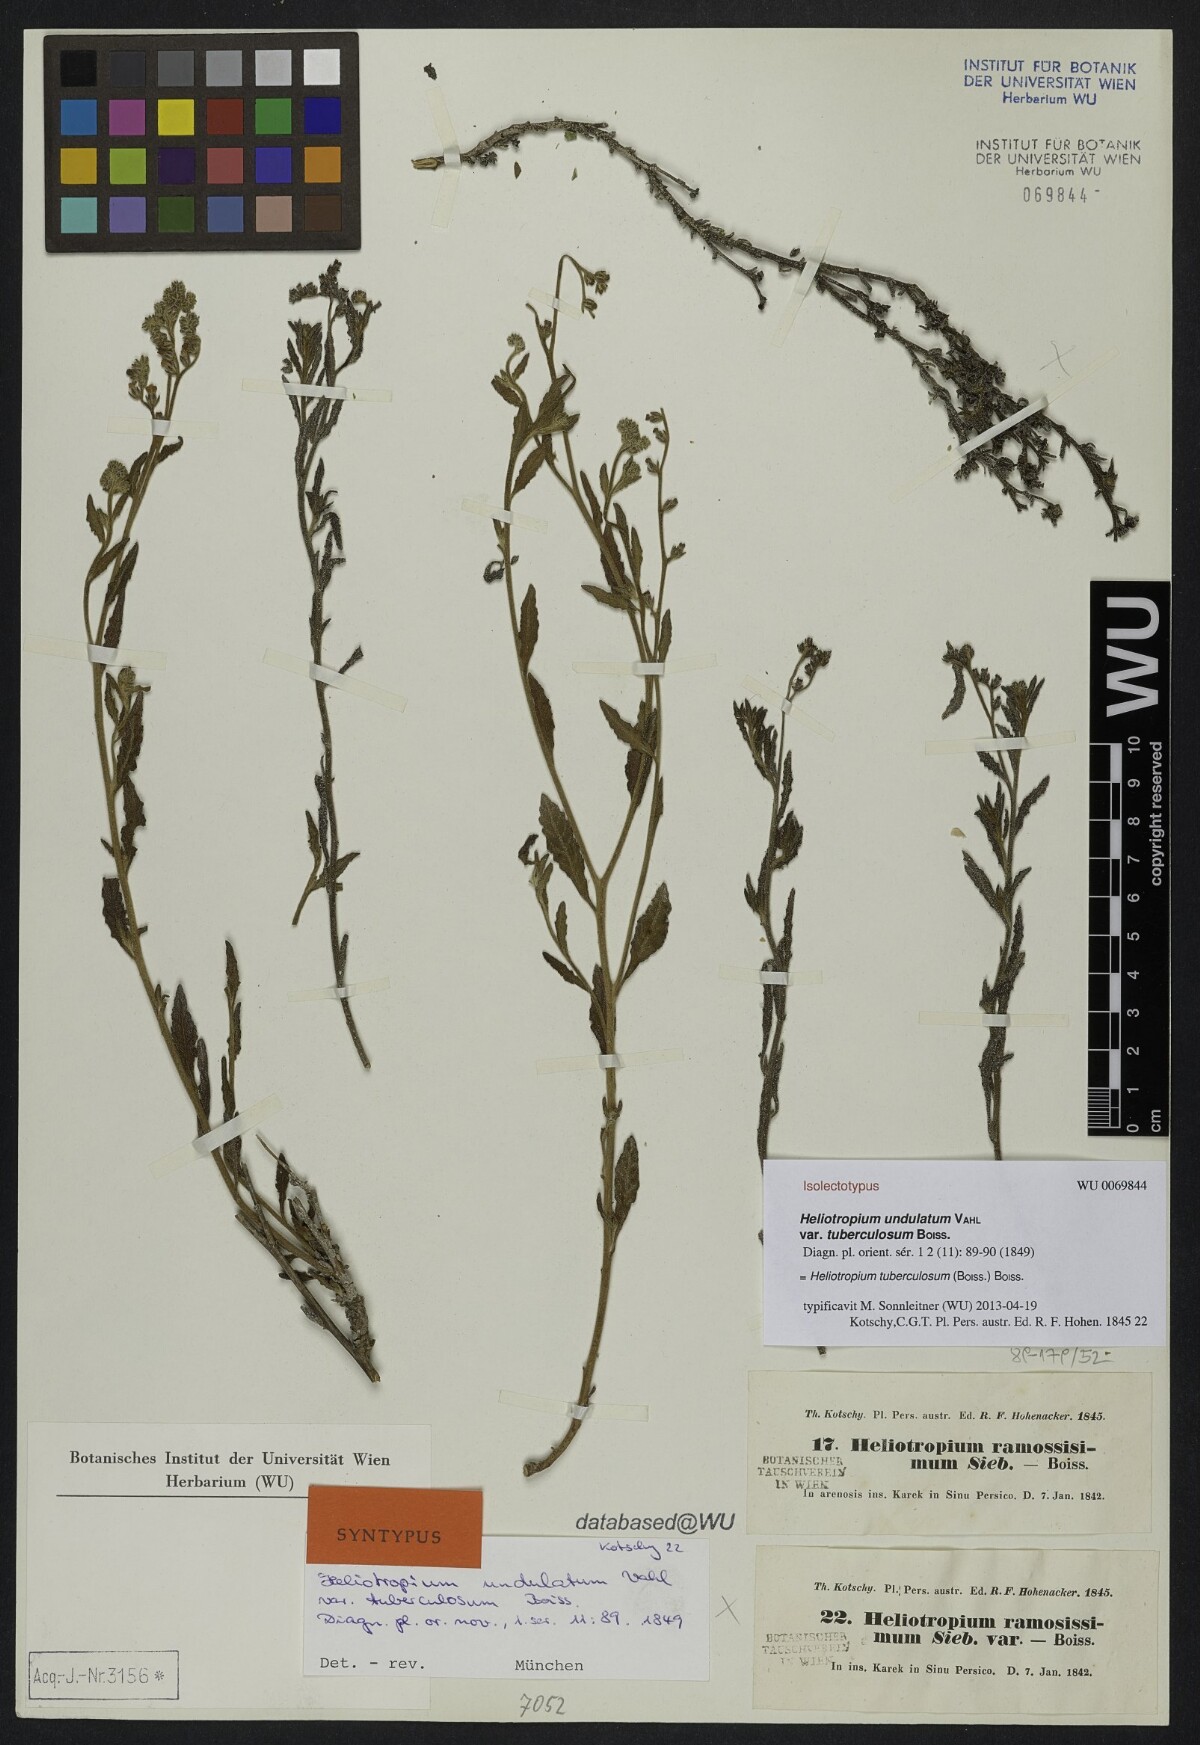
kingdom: Plantae
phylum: Tracheophyta
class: Magnoliopsida
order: Boraginales
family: Heliotropiaceae
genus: Heliotropium
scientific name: Heliotropium bacciferum
